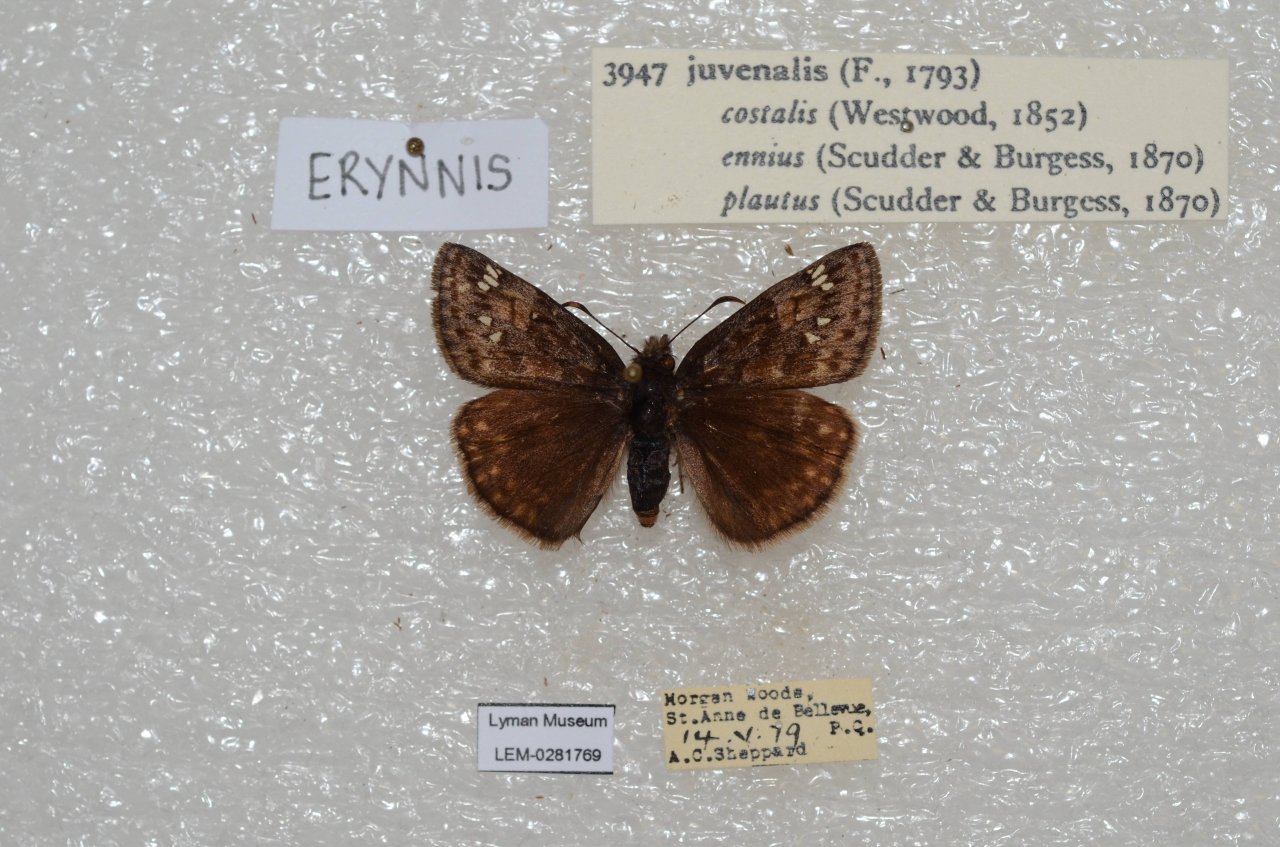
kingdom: Animalia
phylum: Arthropoda
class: Insecta
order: Lepidoptera
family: Hesperiidae
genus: Gesta
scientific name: Gesta
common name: Juvenal's Duskywing
